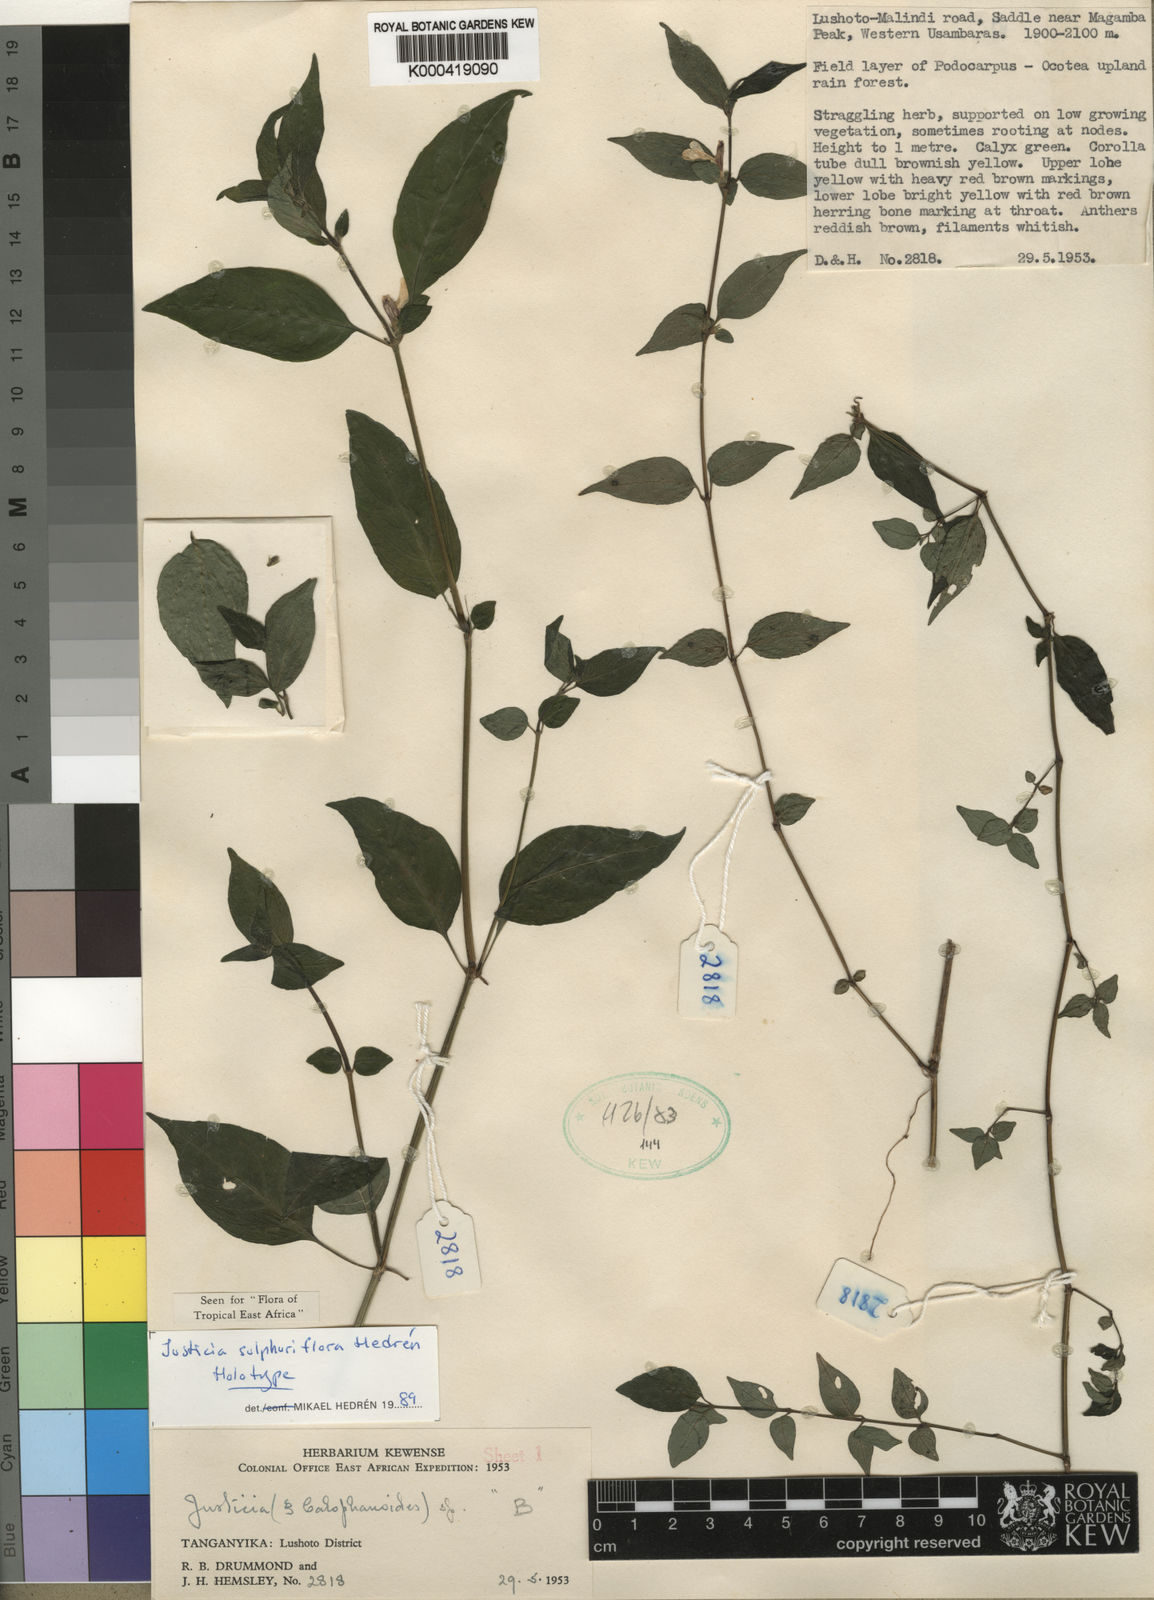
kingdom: Plantae
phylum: Tracheophyta
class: Magnoliopsida
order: Lamiales
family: Acanthaceae
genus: Justicia
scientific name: Justicia
